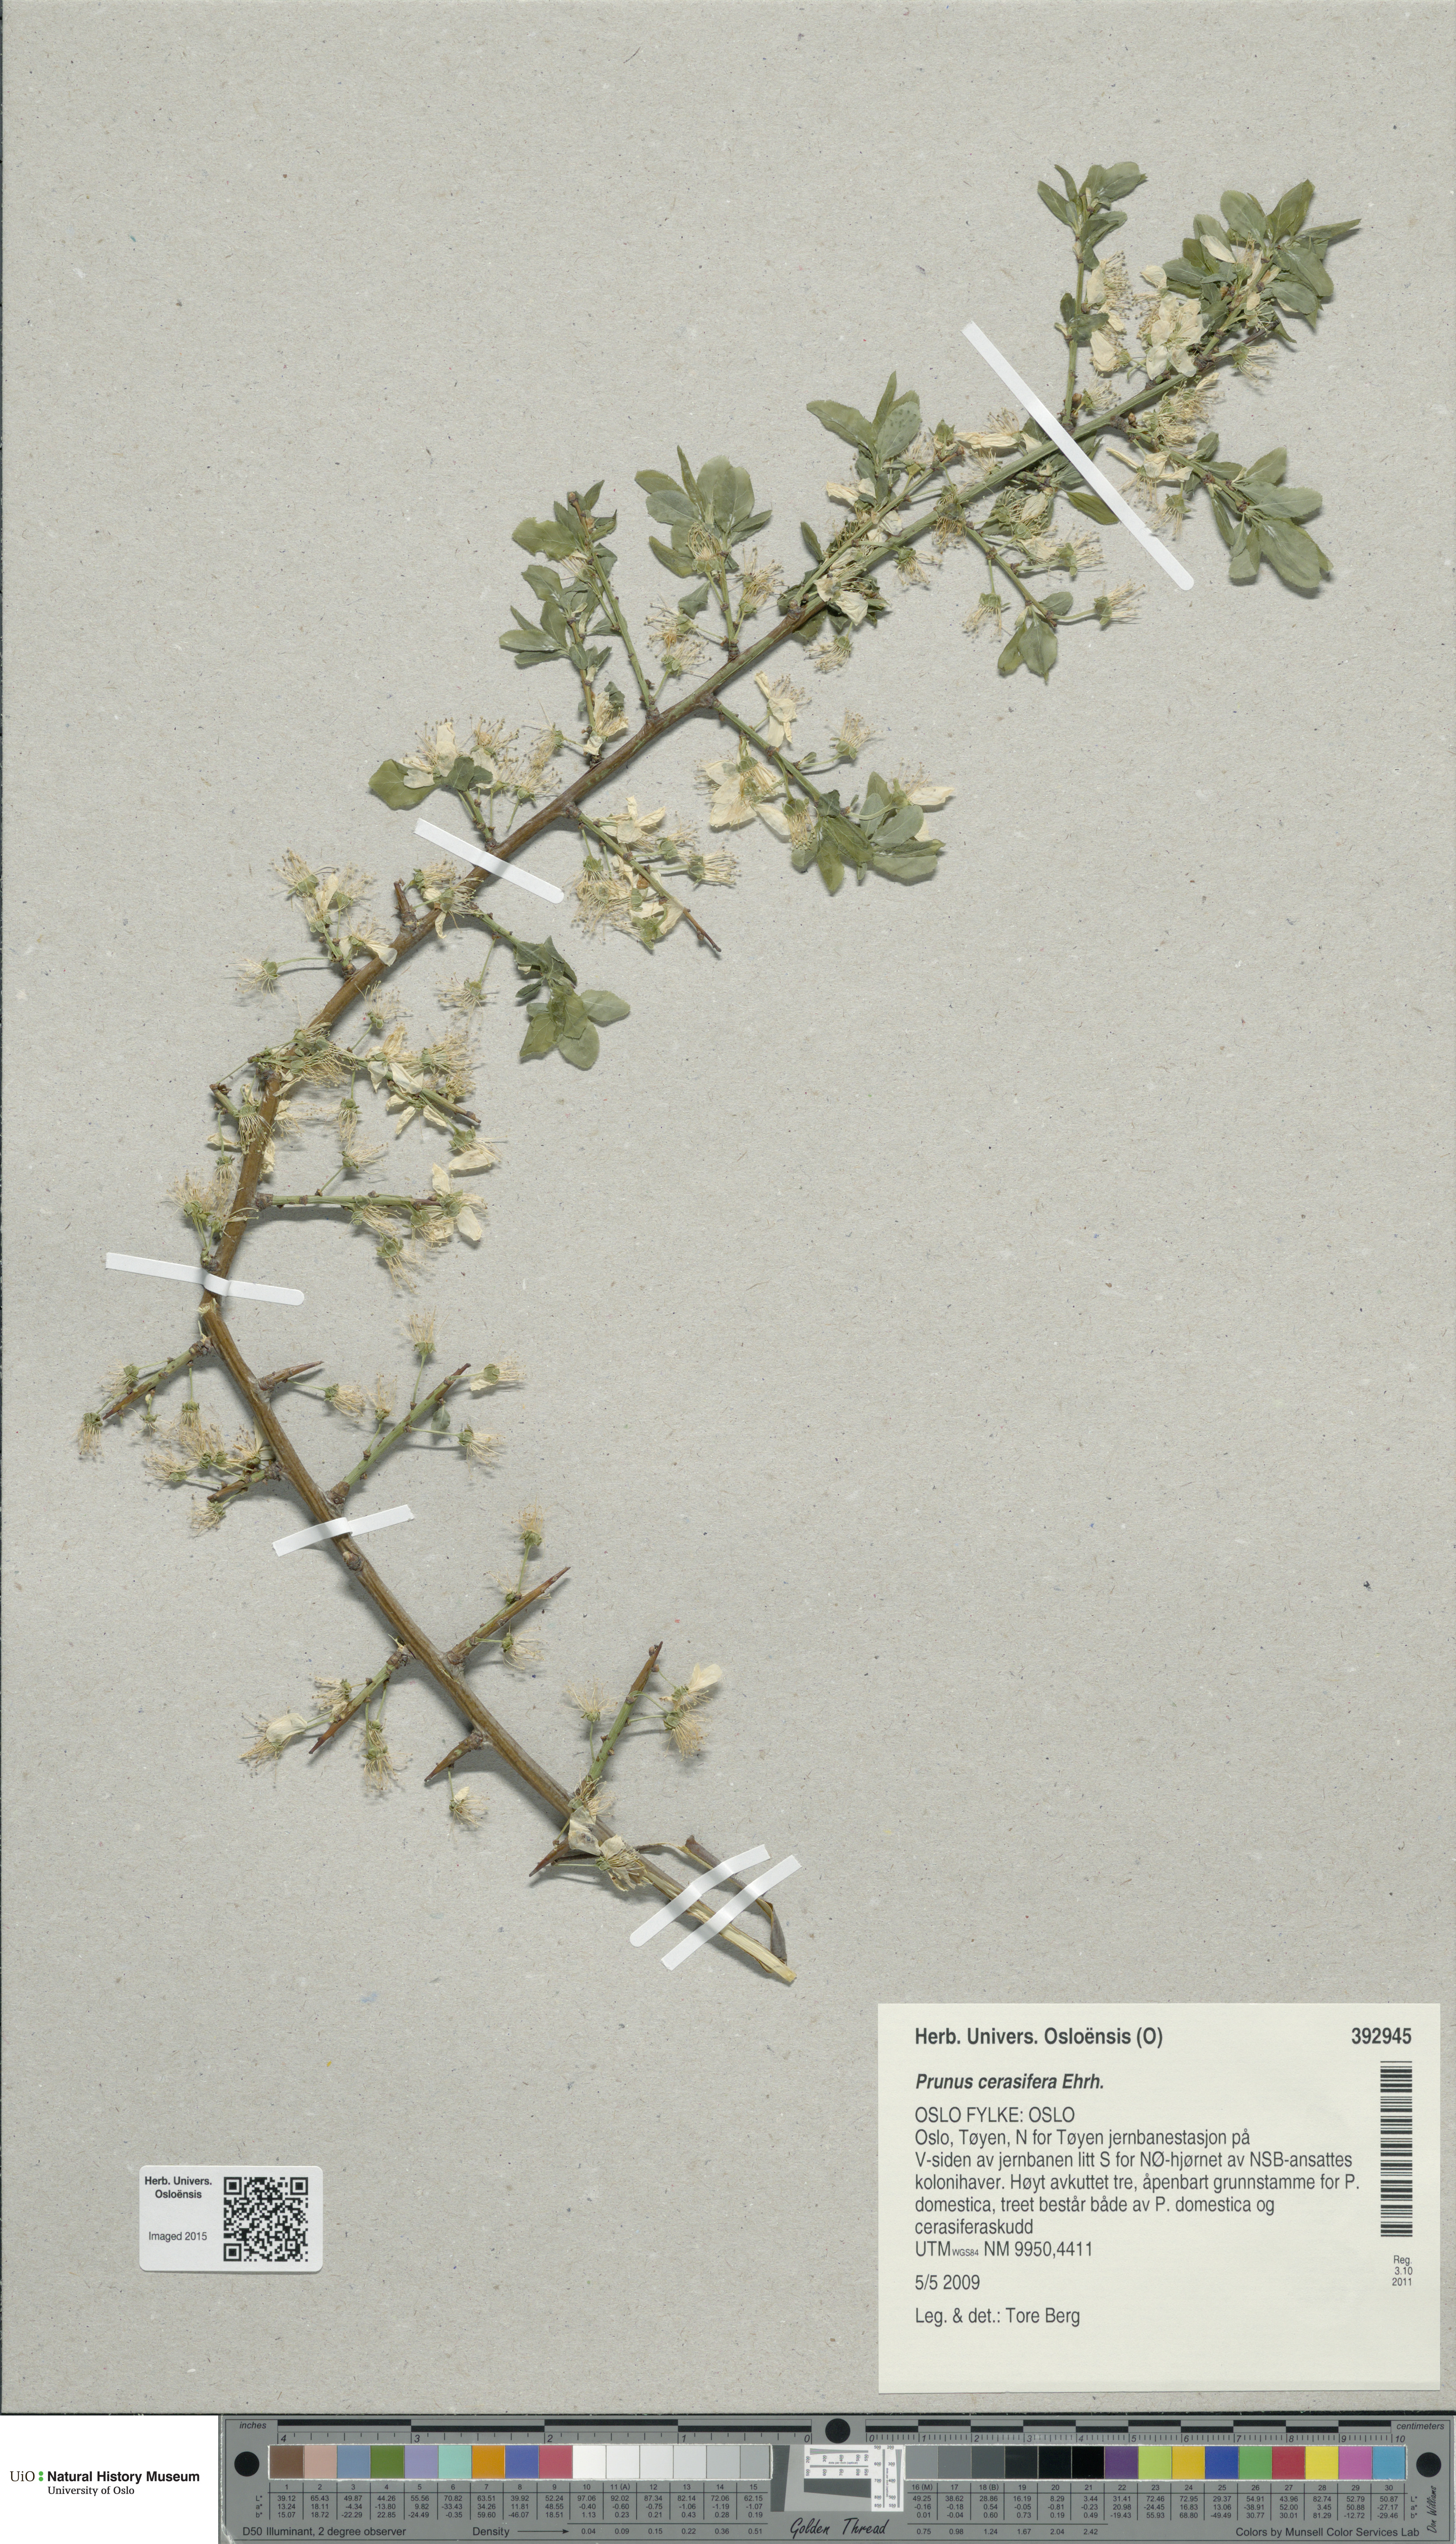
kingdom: Plantae
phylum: Tracheophyta
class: Magnoliopsida
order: Rosales
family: Rosaceae
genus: Prunus
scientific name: Prunus cerasifera
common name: Cherry plum
